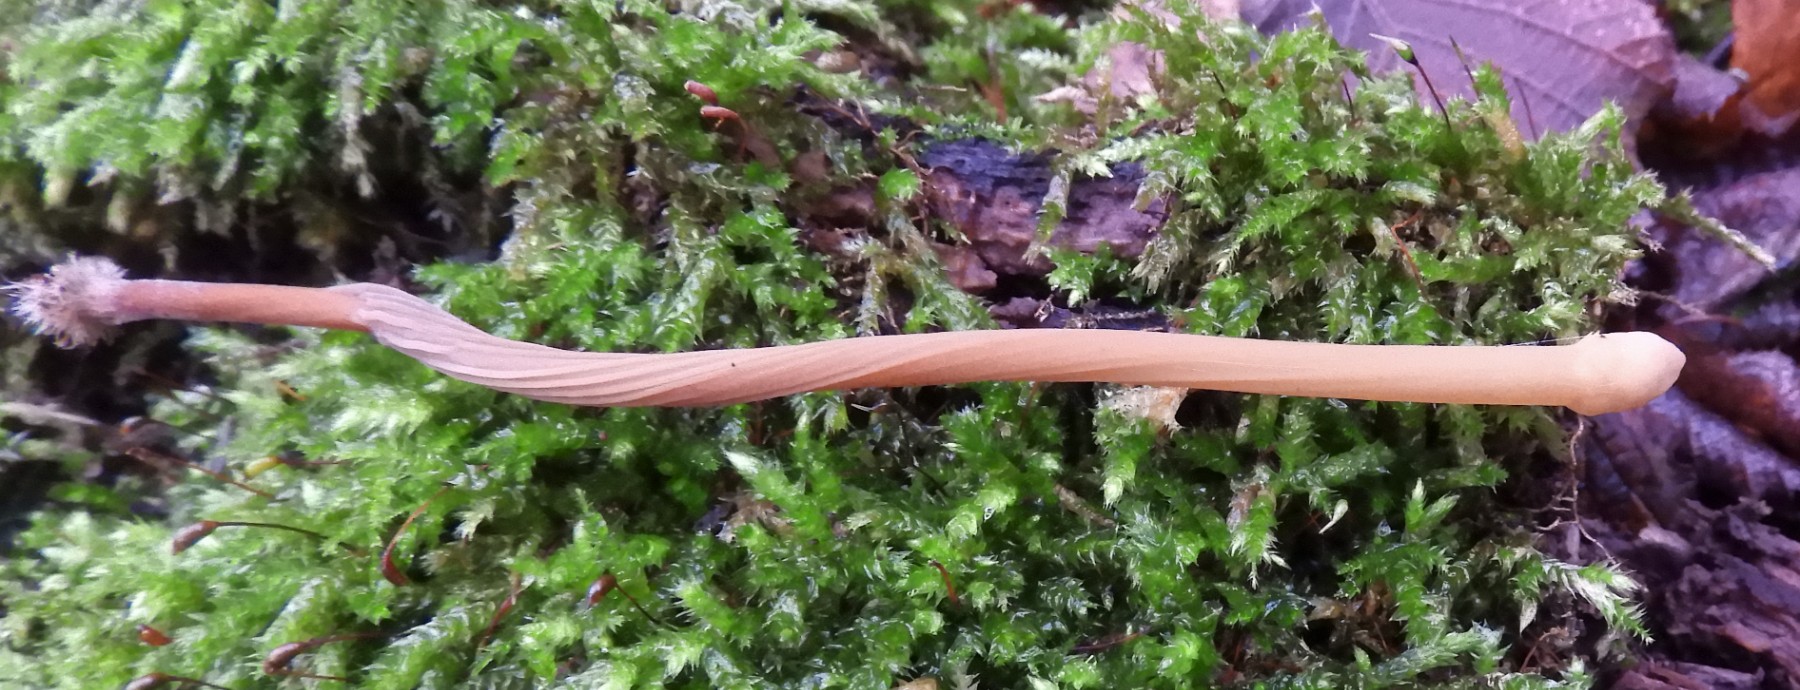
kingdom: Fungi
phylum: Basidiomycota
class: Agaricomycetes
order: Agaricales
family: Typhulaceae
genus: Typhula
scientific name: Typhula fistulosa
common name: pibet rørkølle
